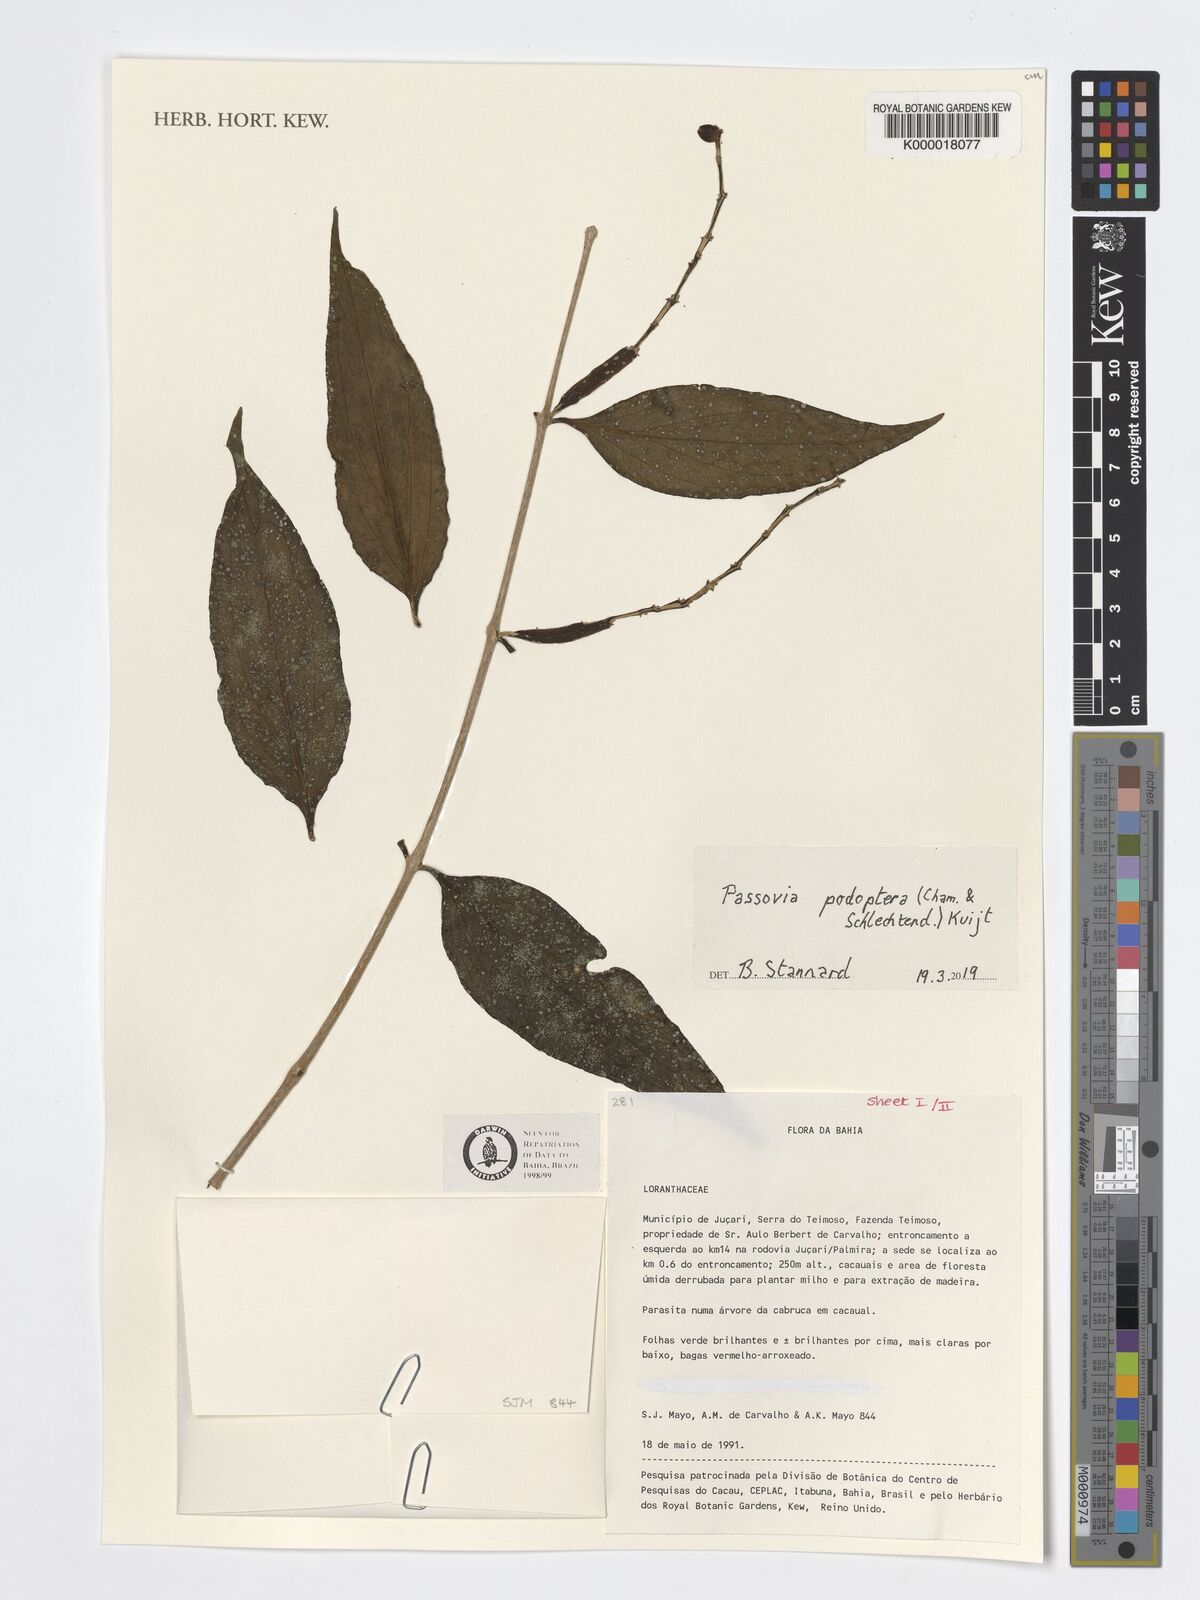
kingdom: Plantae
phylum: Tracheophyta
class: Magnoliopsida
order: Santalales
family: Loranthaceae
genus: Passovia
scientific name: Passovia podoptera
